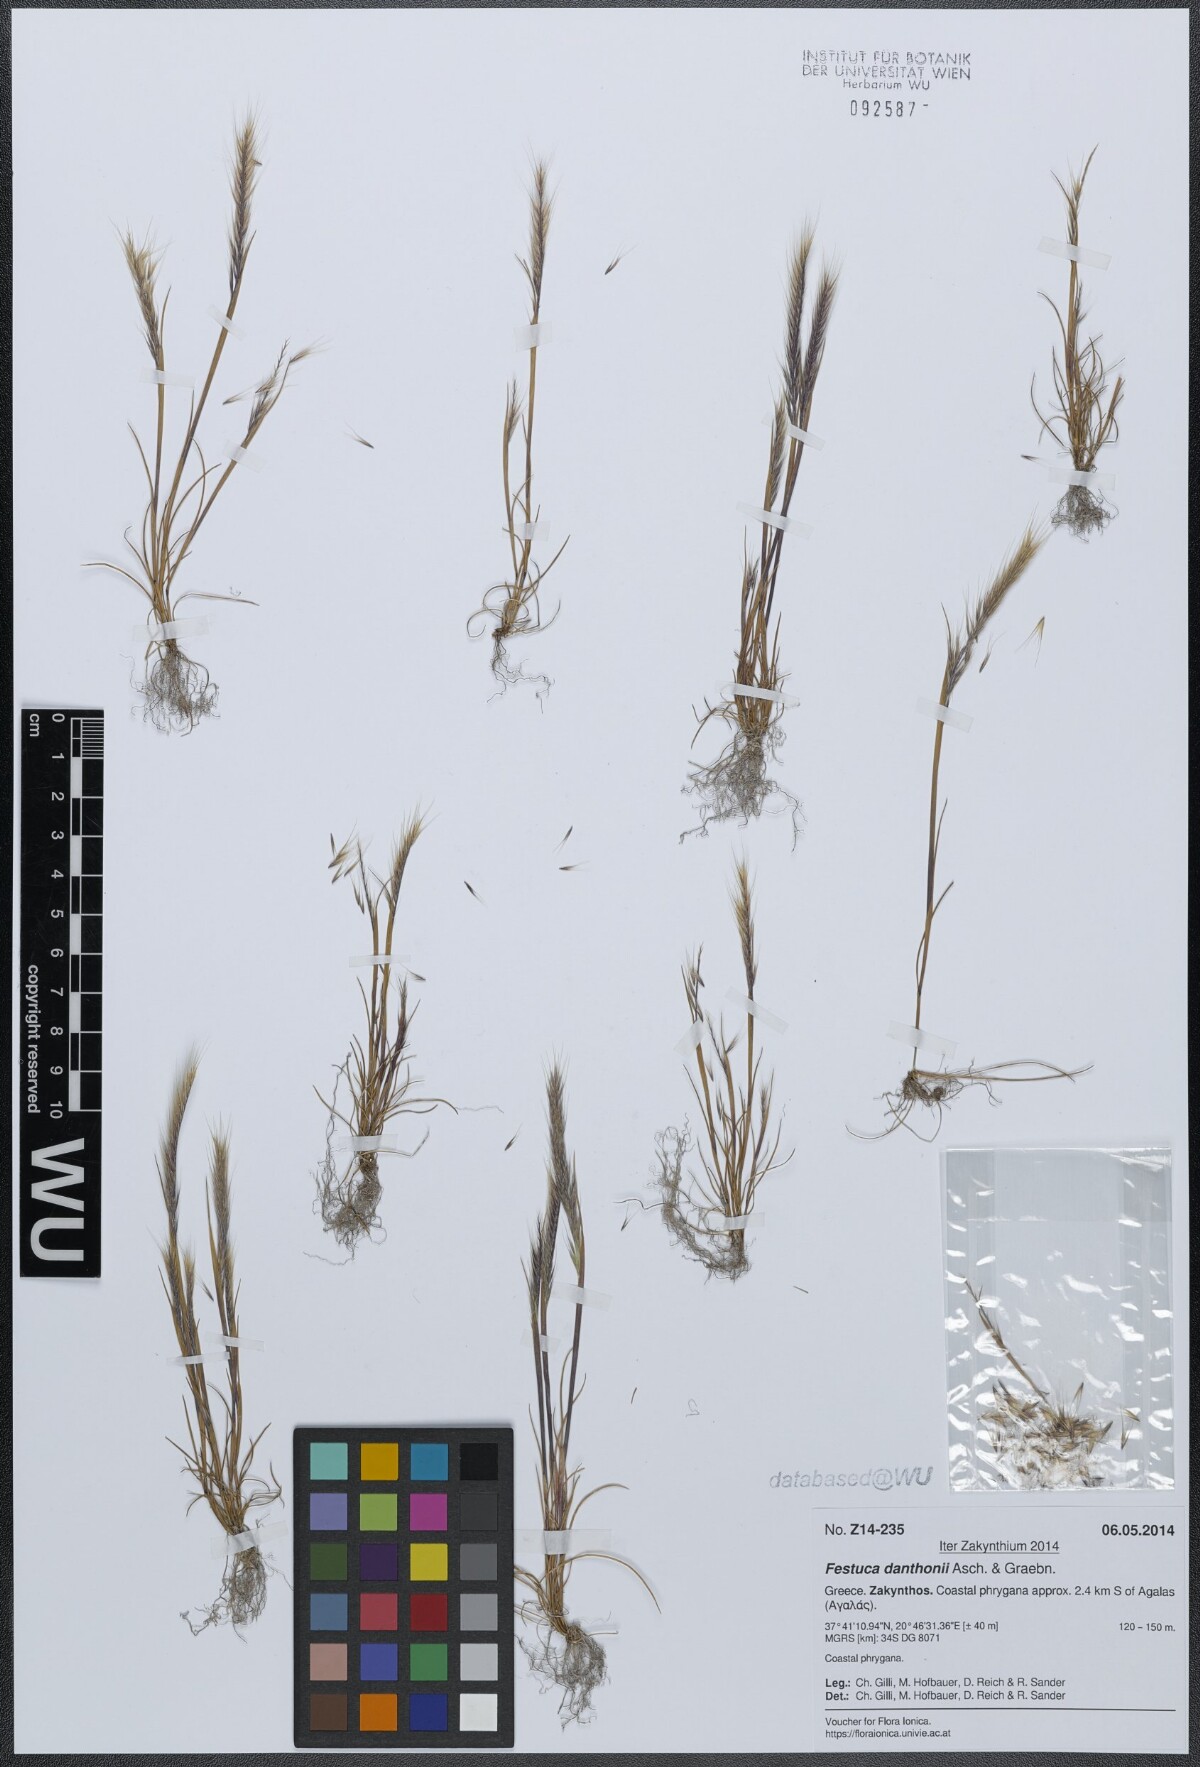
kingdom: Plantae
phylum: Tracheophyta
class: Liliopsida
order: Poales
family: Poaceae
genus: Festuca
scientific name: Festuca ambigua
